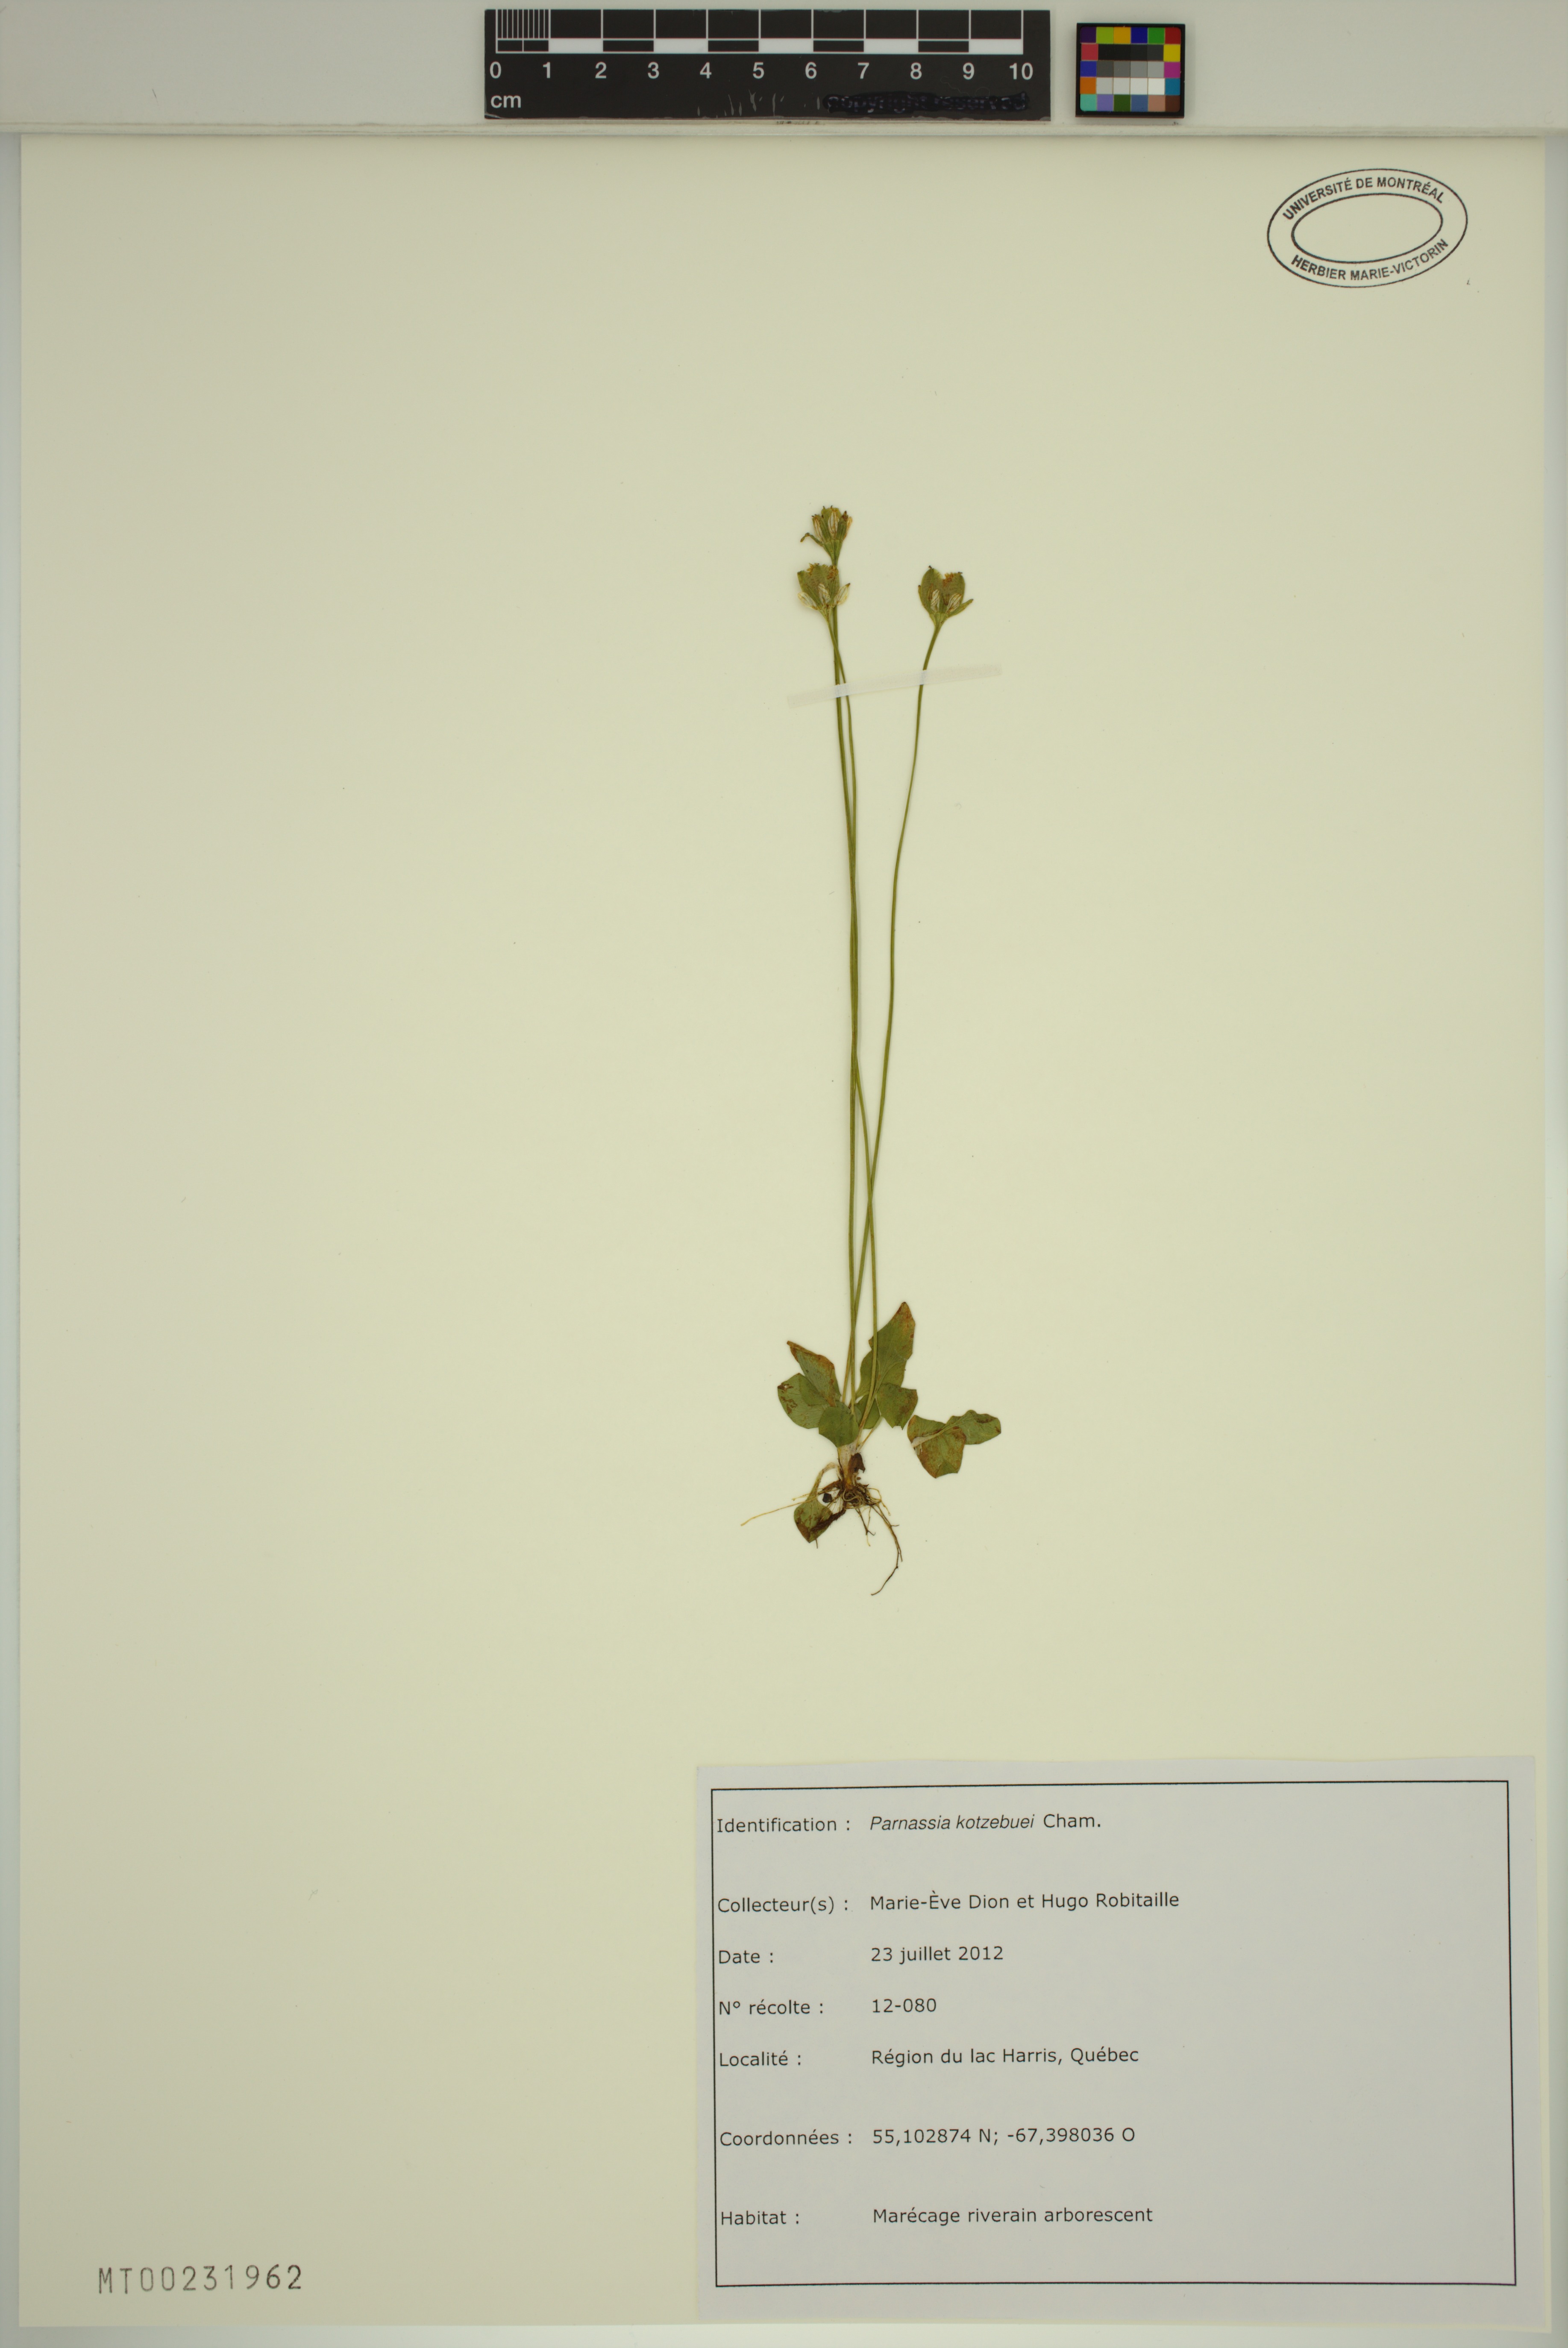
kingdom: Plantae
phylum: Tracheophyta
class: Magnoliopsida
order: Celastrales
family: Parnassiaceae
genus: Parnassia
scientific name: Parnassia kotzebuei
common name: Kotzebue's grass-of-parnassus
